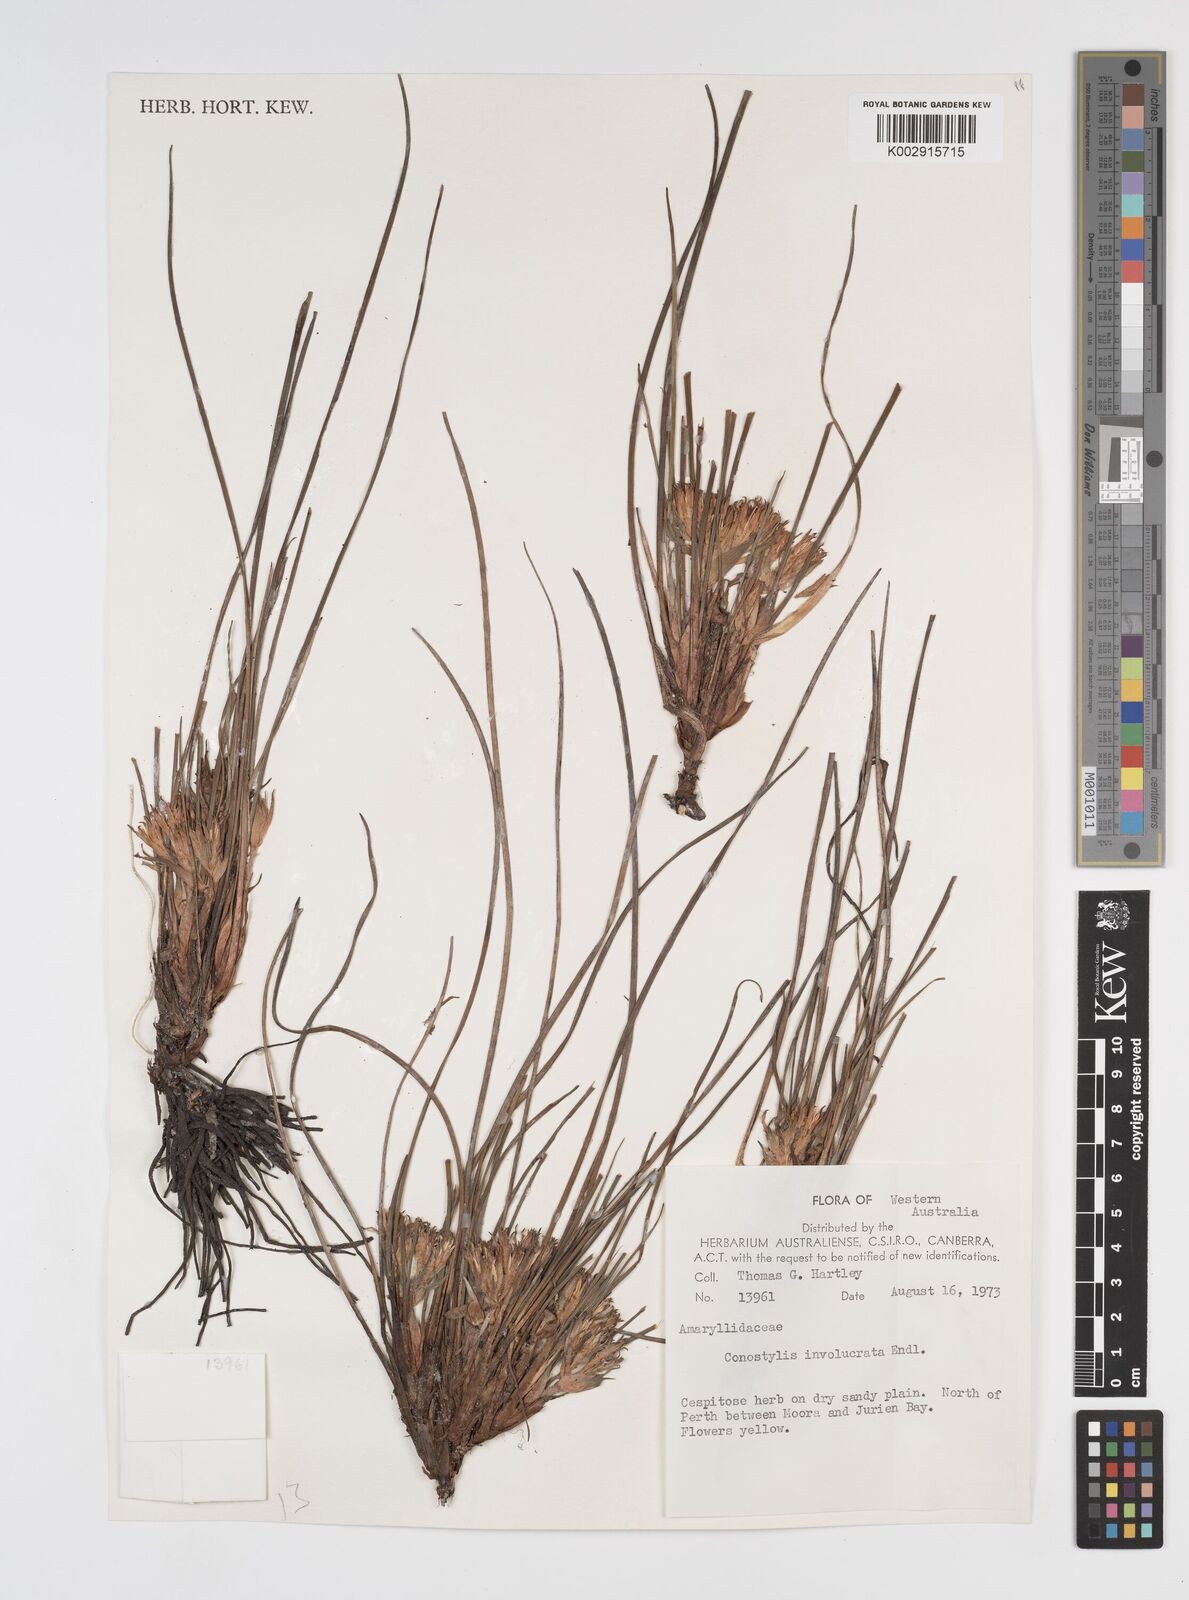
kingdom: Plantae
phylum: Tracheophyta
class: Liliopsida
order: Commelinales
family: Haemodoraceae
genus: Conostylis
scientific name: Conostylis juncea
